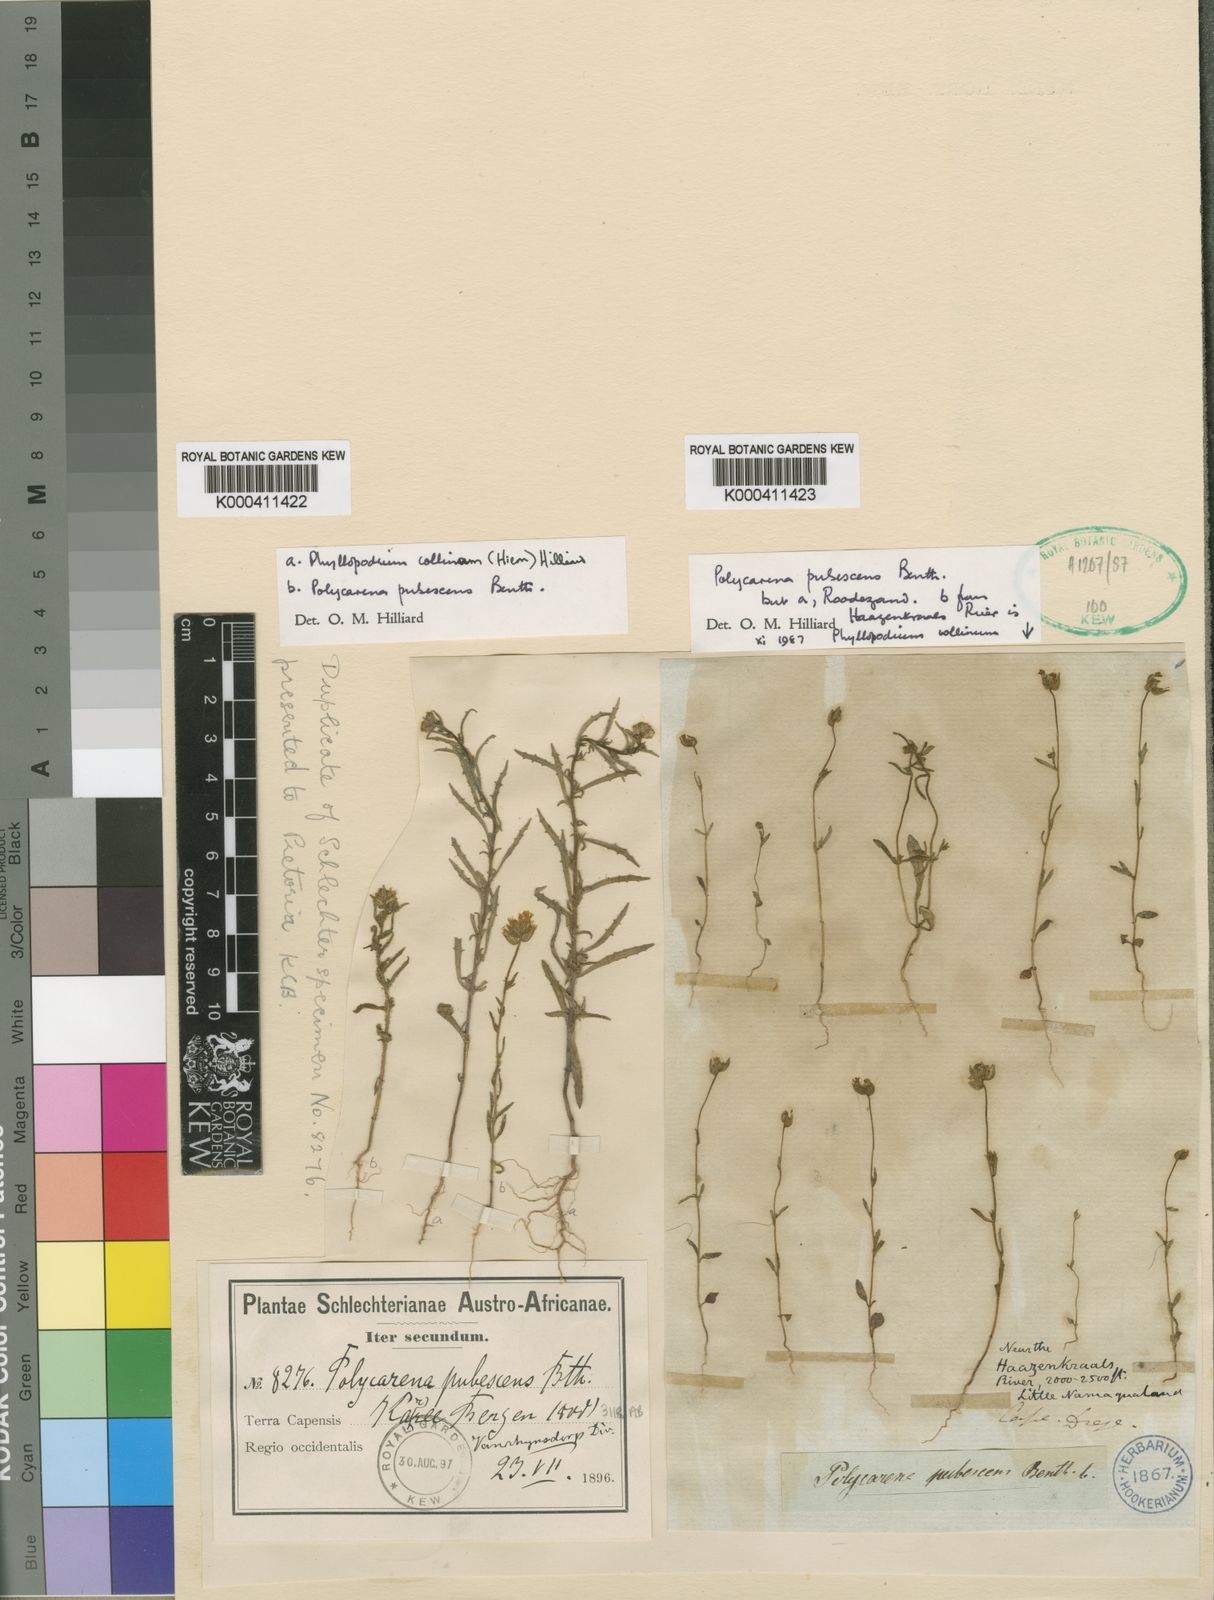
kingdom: Plantae
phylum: Tracheophyta
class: Magnoliopsida
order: Lamiales
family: Scrophulariaceae
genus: Polycarena
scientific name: Polycarena pubescens
